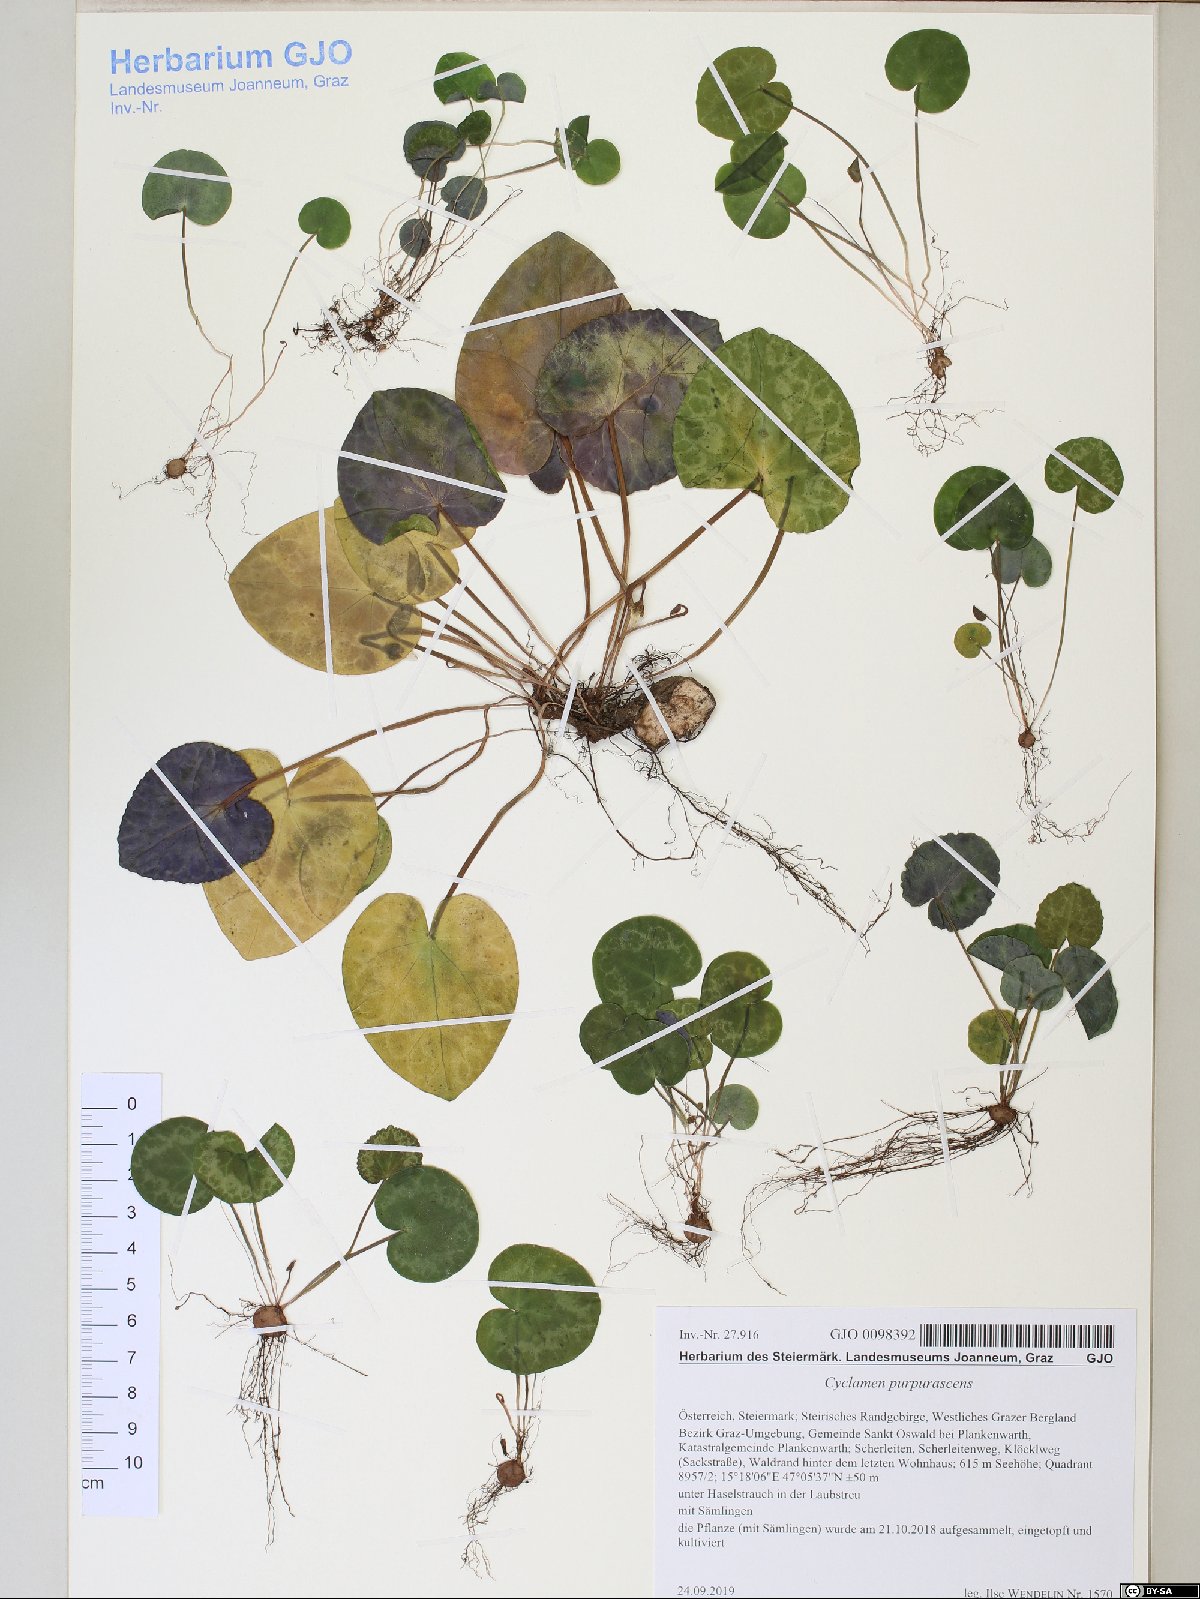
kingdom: Plantae
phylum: Tracheophyta
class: Magnoliopsida
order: Ericales
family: Primulaceae
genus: Cyclamen
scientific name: Cyclamen purpurascens
